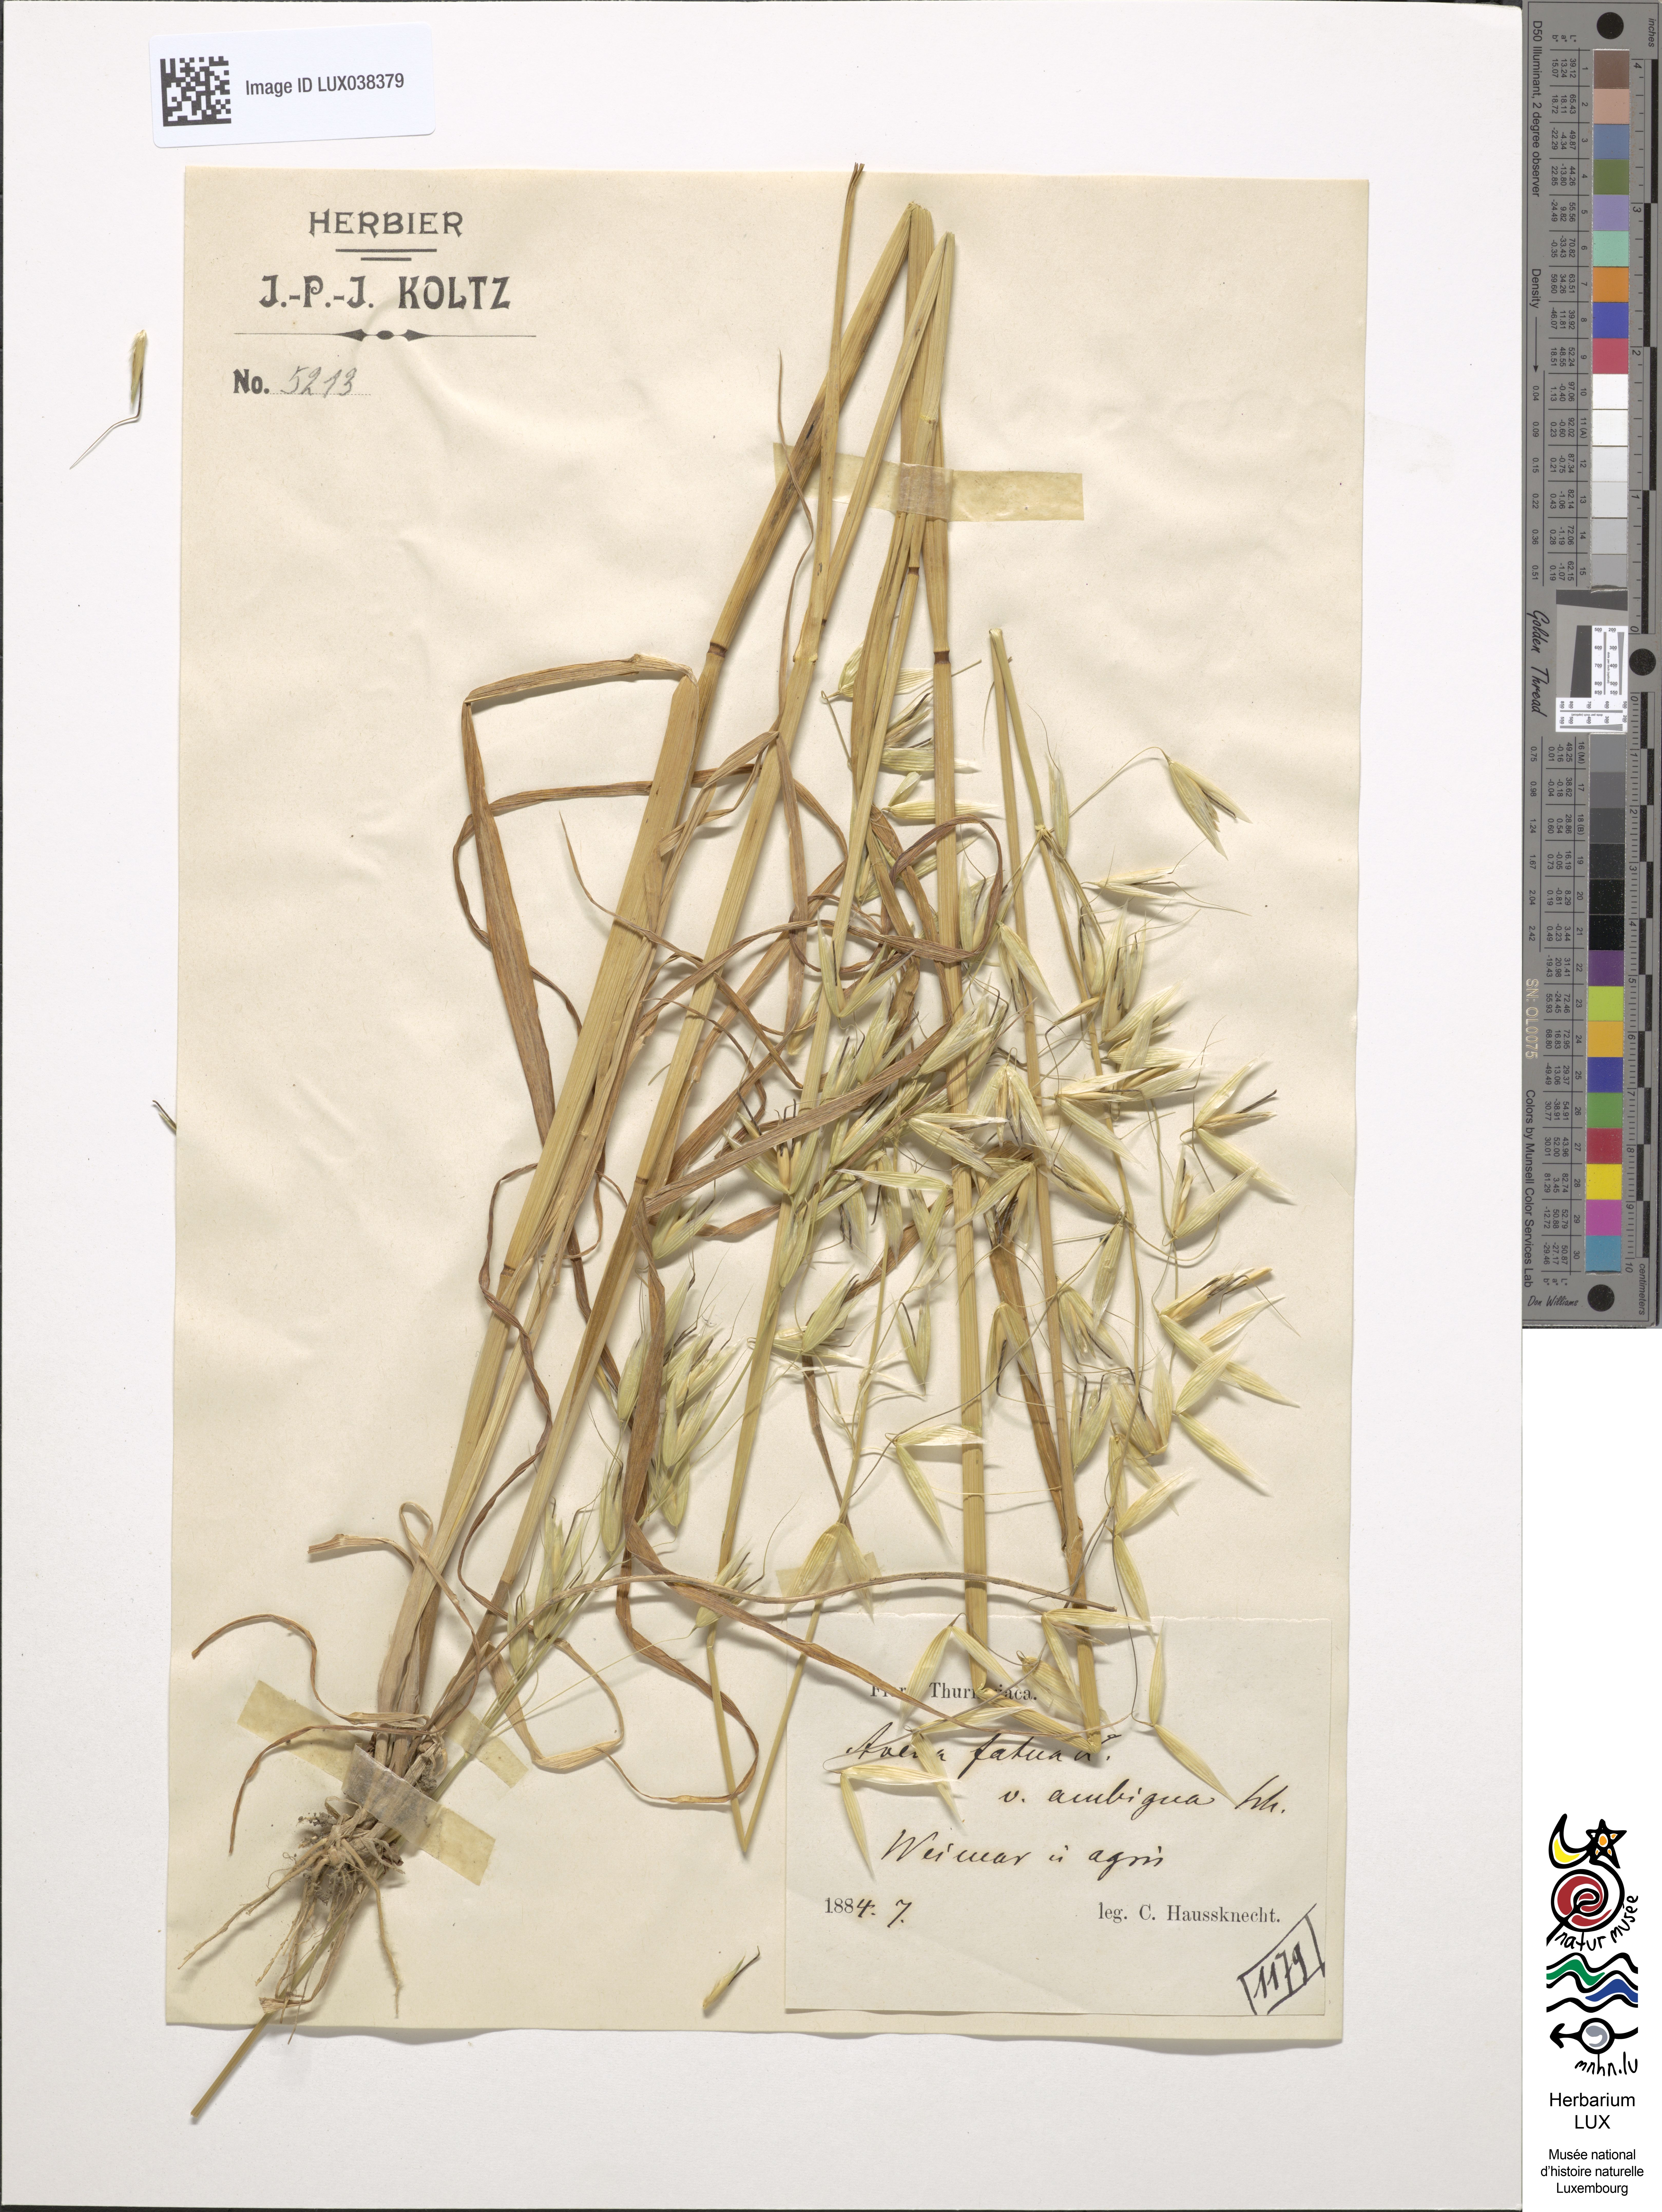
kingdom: Plantae
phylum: Tracheophyta
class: Liliopsida
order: Poales
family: Poaceae
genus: Avena
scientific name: Avena fatua
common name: Wild oat
